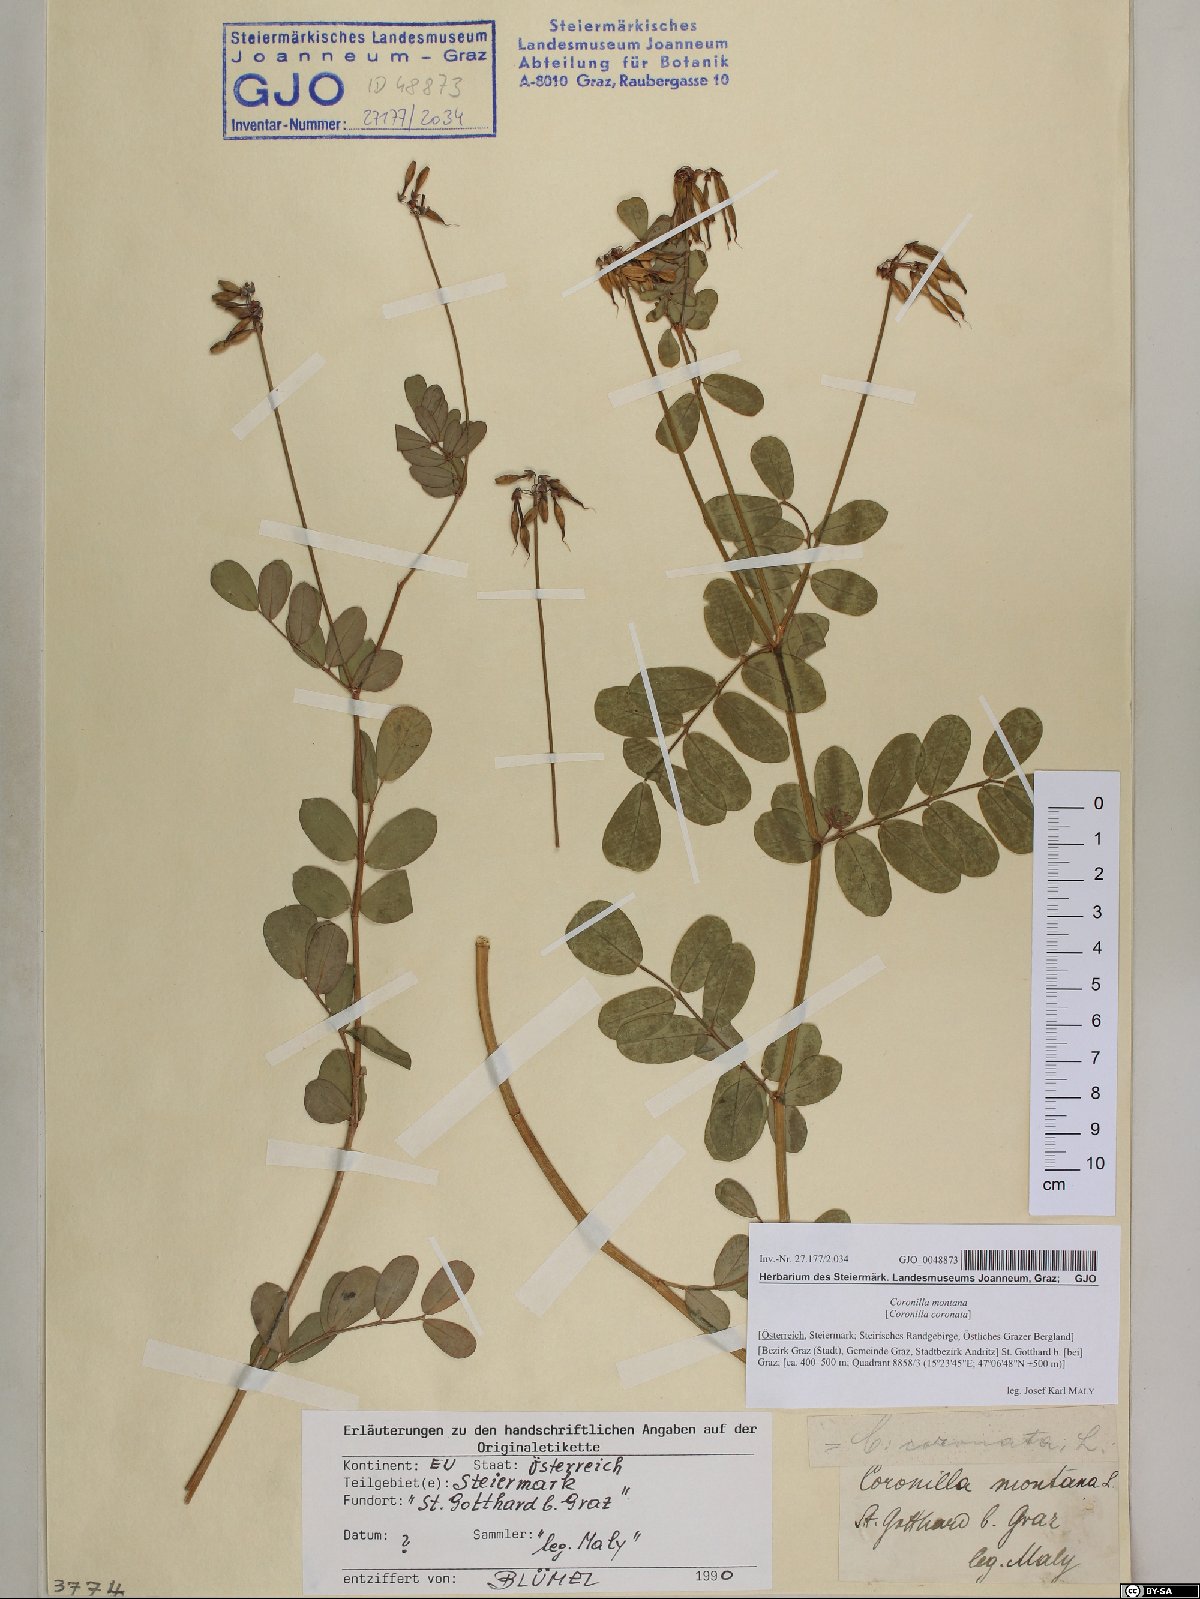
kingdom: Plantae
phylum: Tracheophyta
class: Magnoliopsida
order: Fabales
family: Fabaceae
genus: Coronilla
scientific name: Coronilla coronata
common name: Scorpion-vetch
